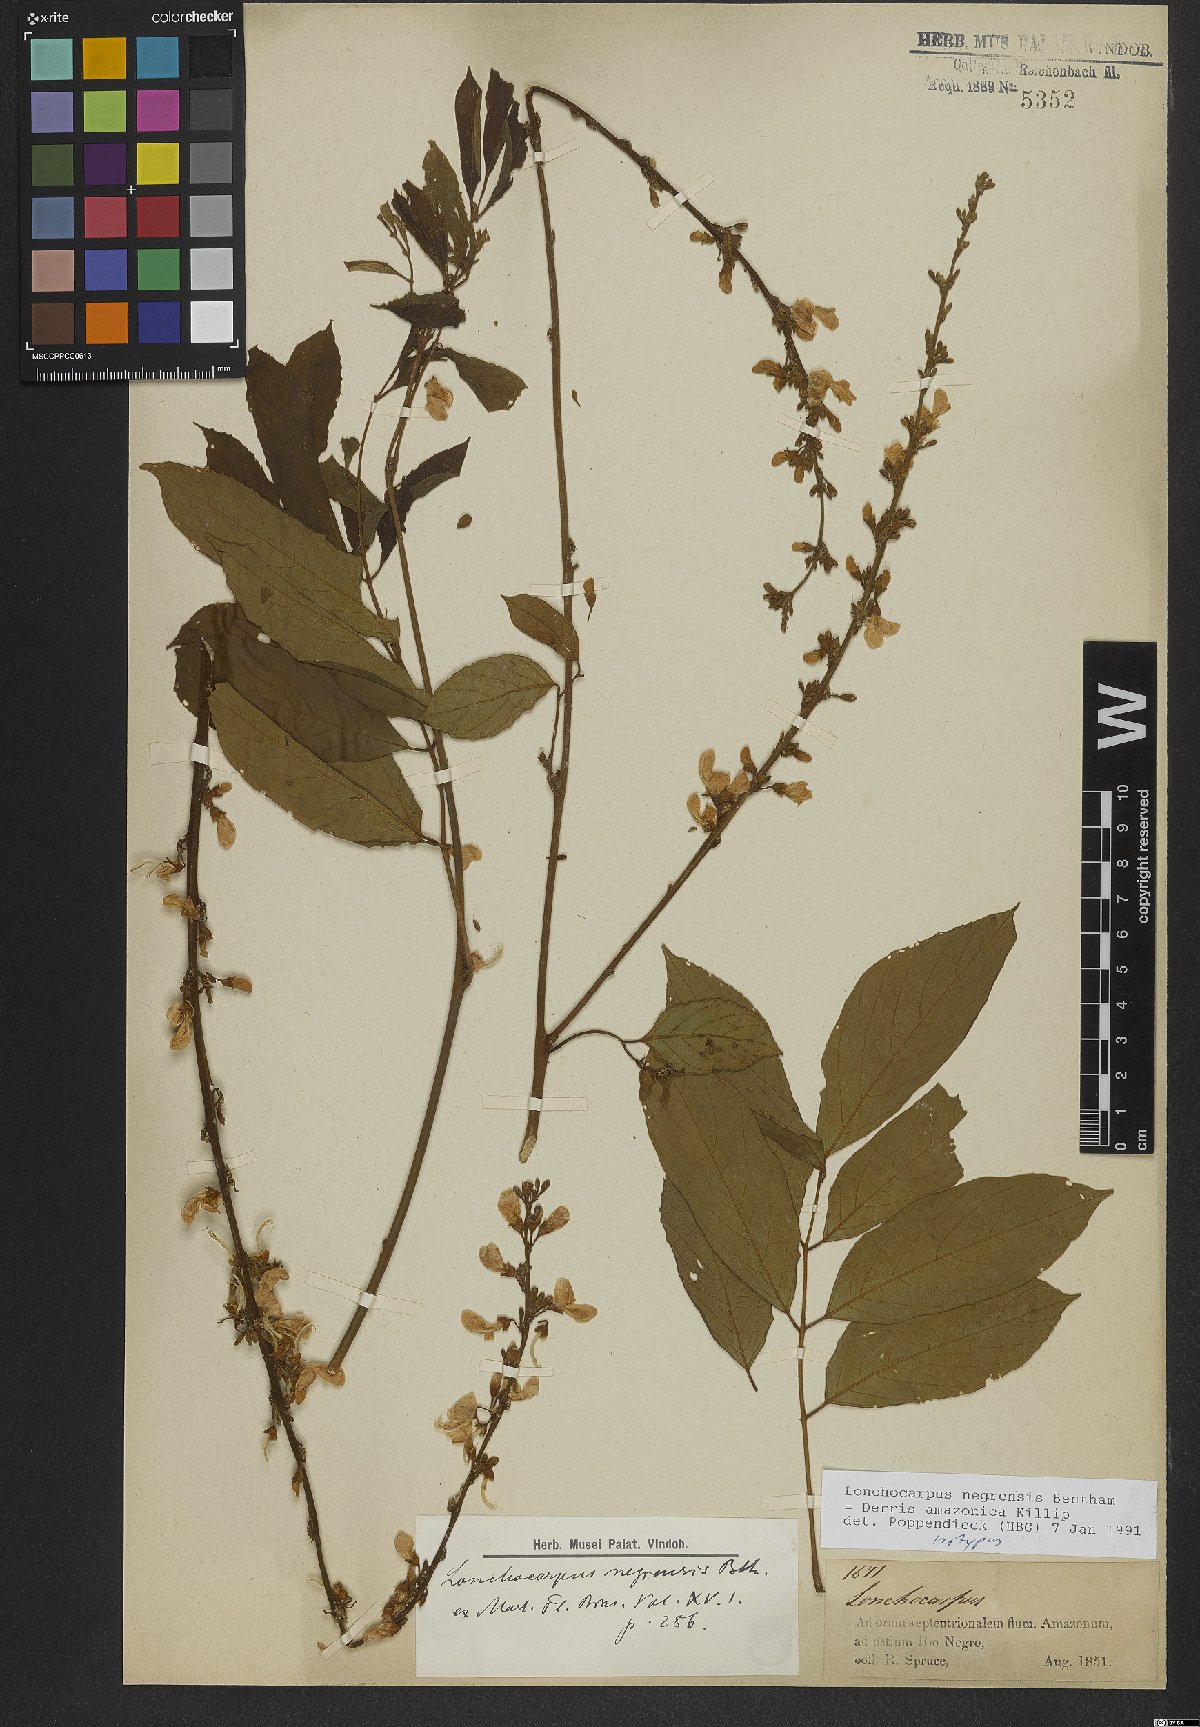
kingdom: Plantae
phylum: Tracheophyta
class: Magnoliopsida
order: Fabales
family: Fabaceae
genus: Deguelia
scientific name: Deguelia amazonica
